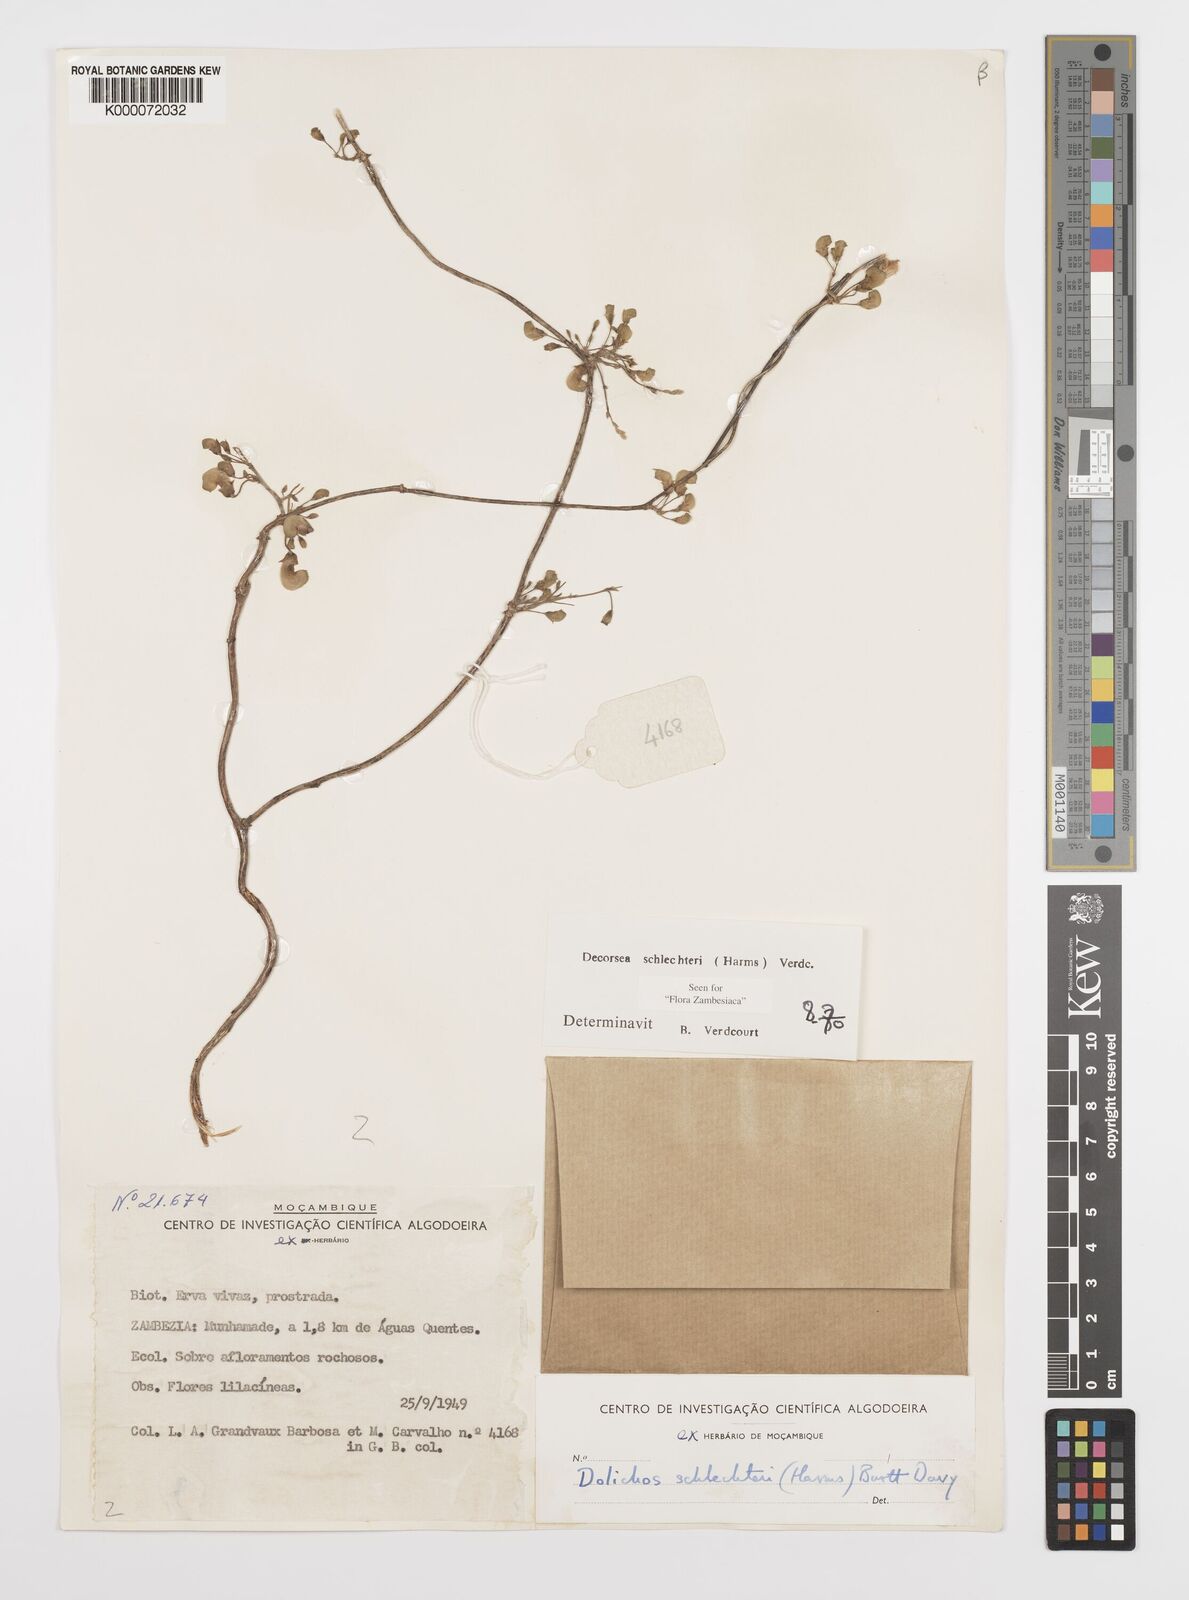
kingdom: Plantae
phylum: Tracheophyta
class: Magnoliopsida
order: Fabales
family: Fabaceae
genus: Decorsea
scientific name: Decorsea schlechteri
